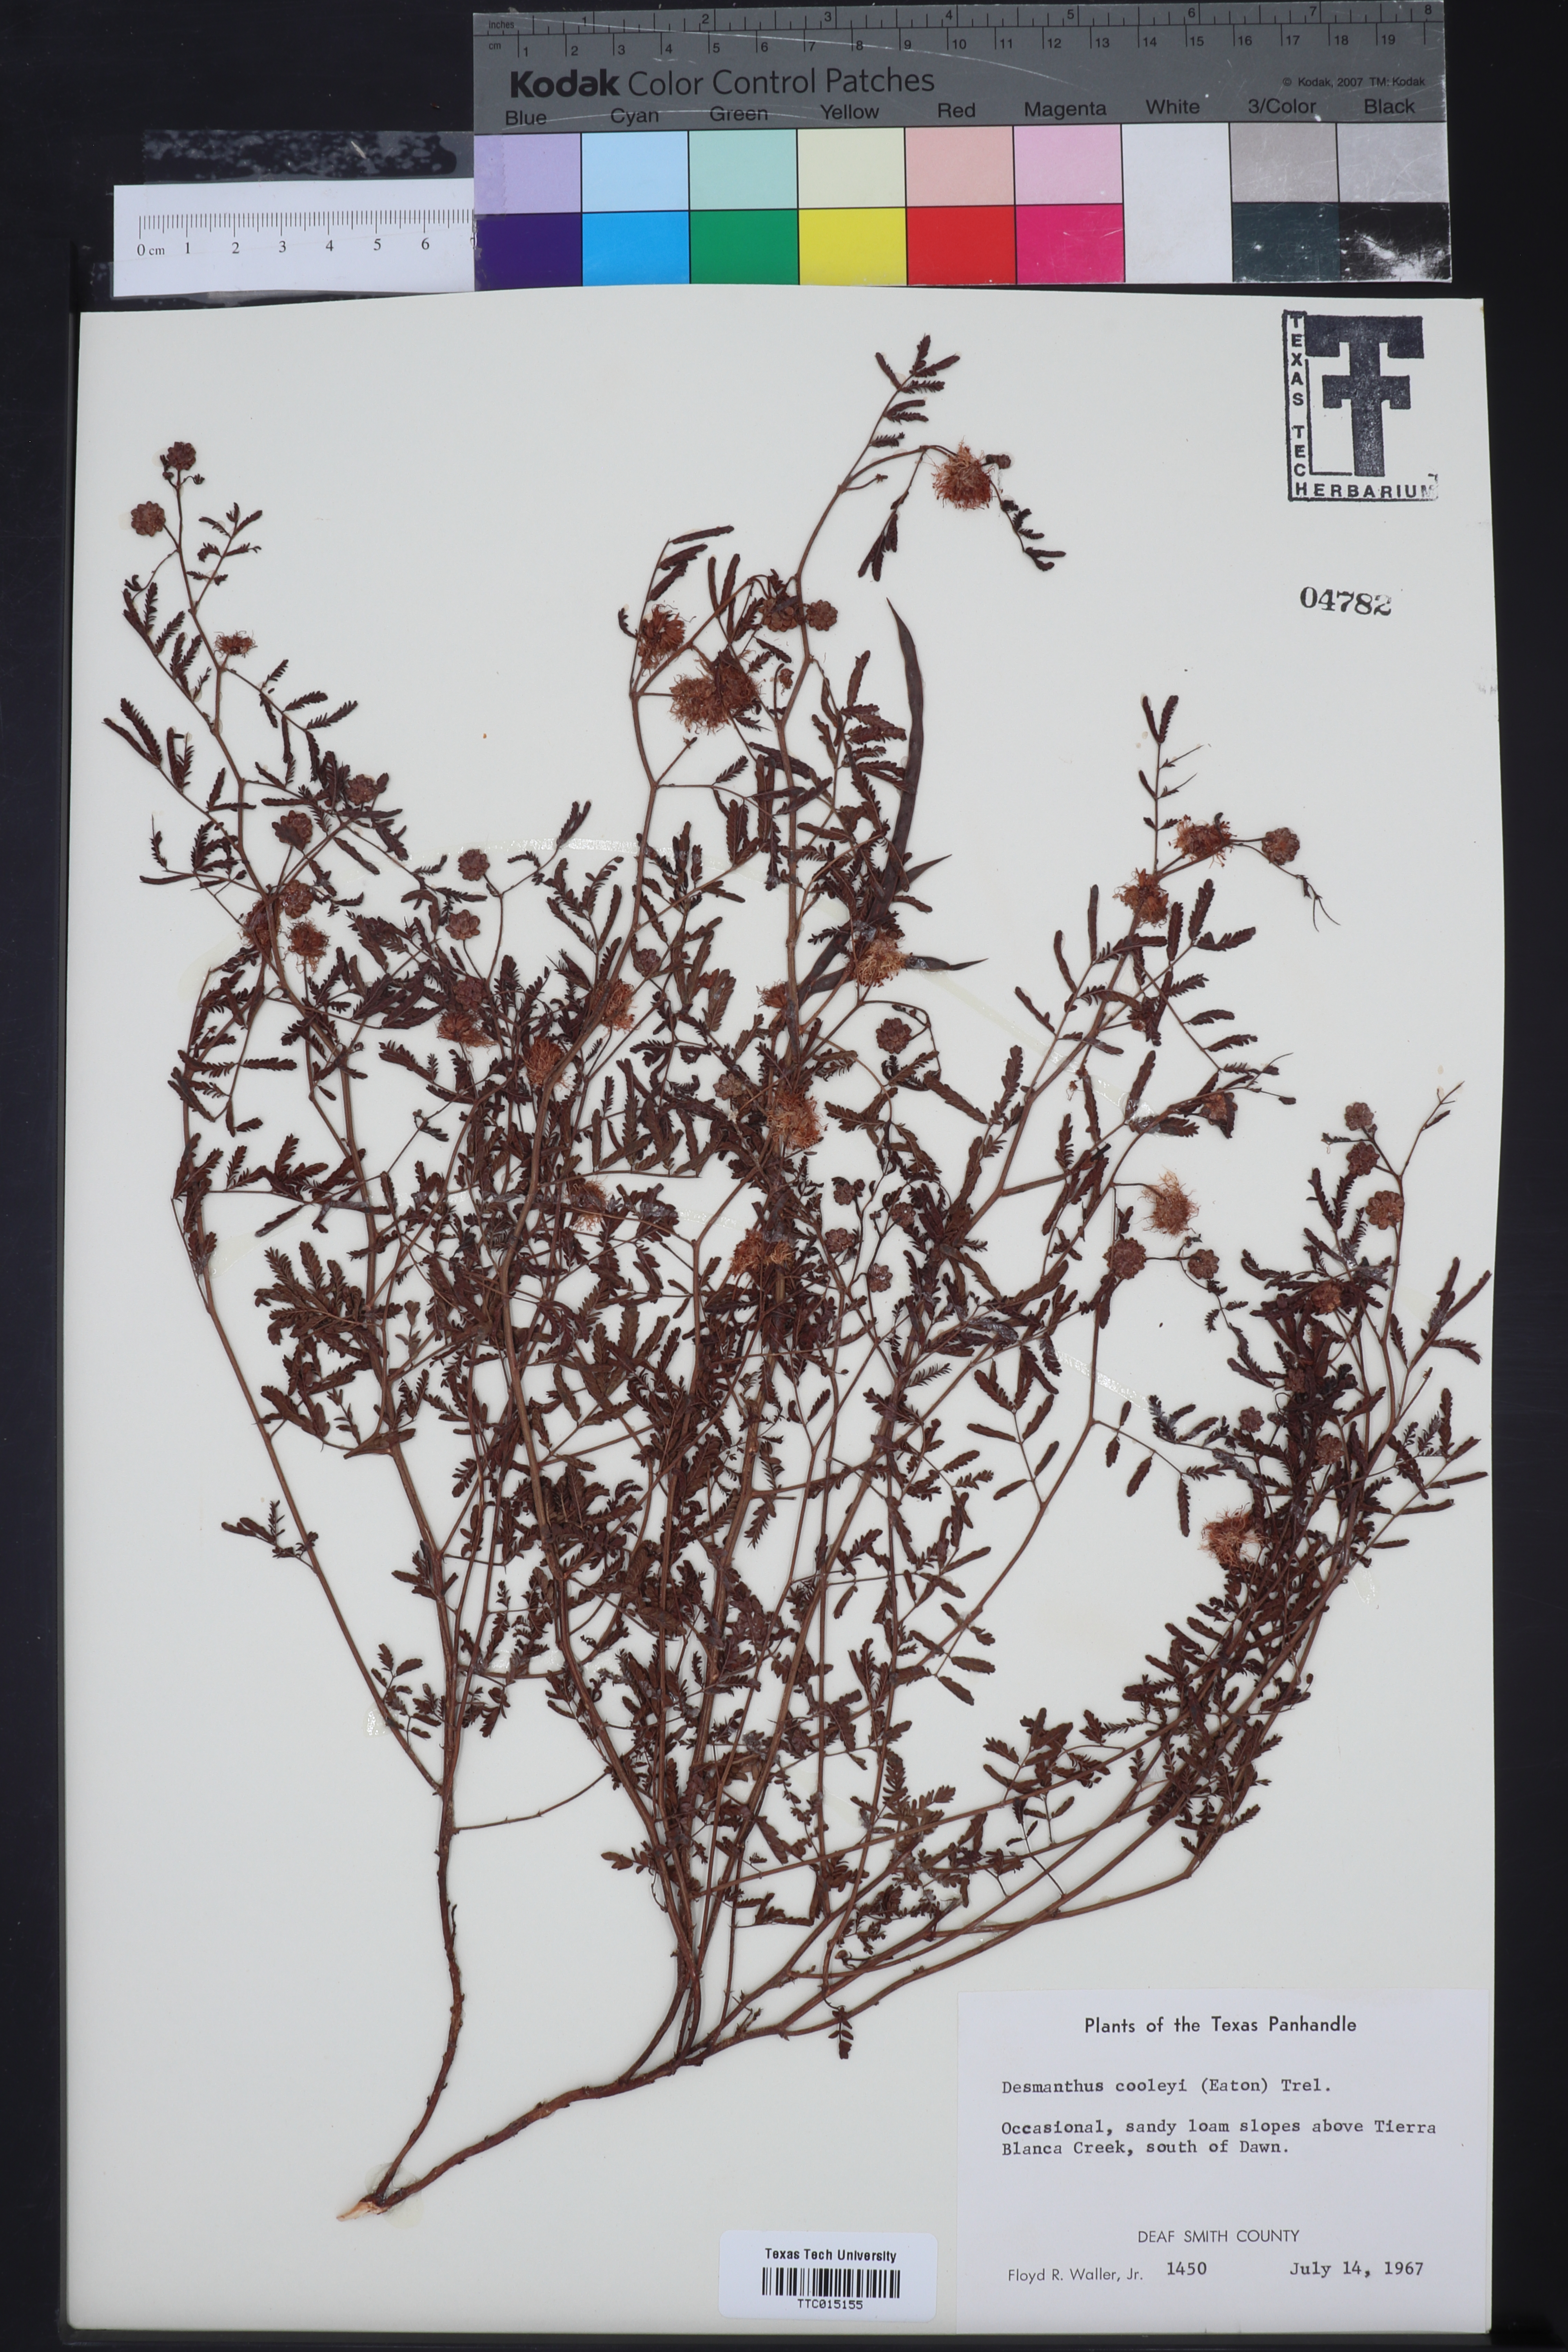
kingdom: Plantae
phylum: Tracheophyta
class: Magnoliopsida
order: Fabales
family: Fabaceae
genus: Desmanthus
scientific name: Desmanthus cooleyi
